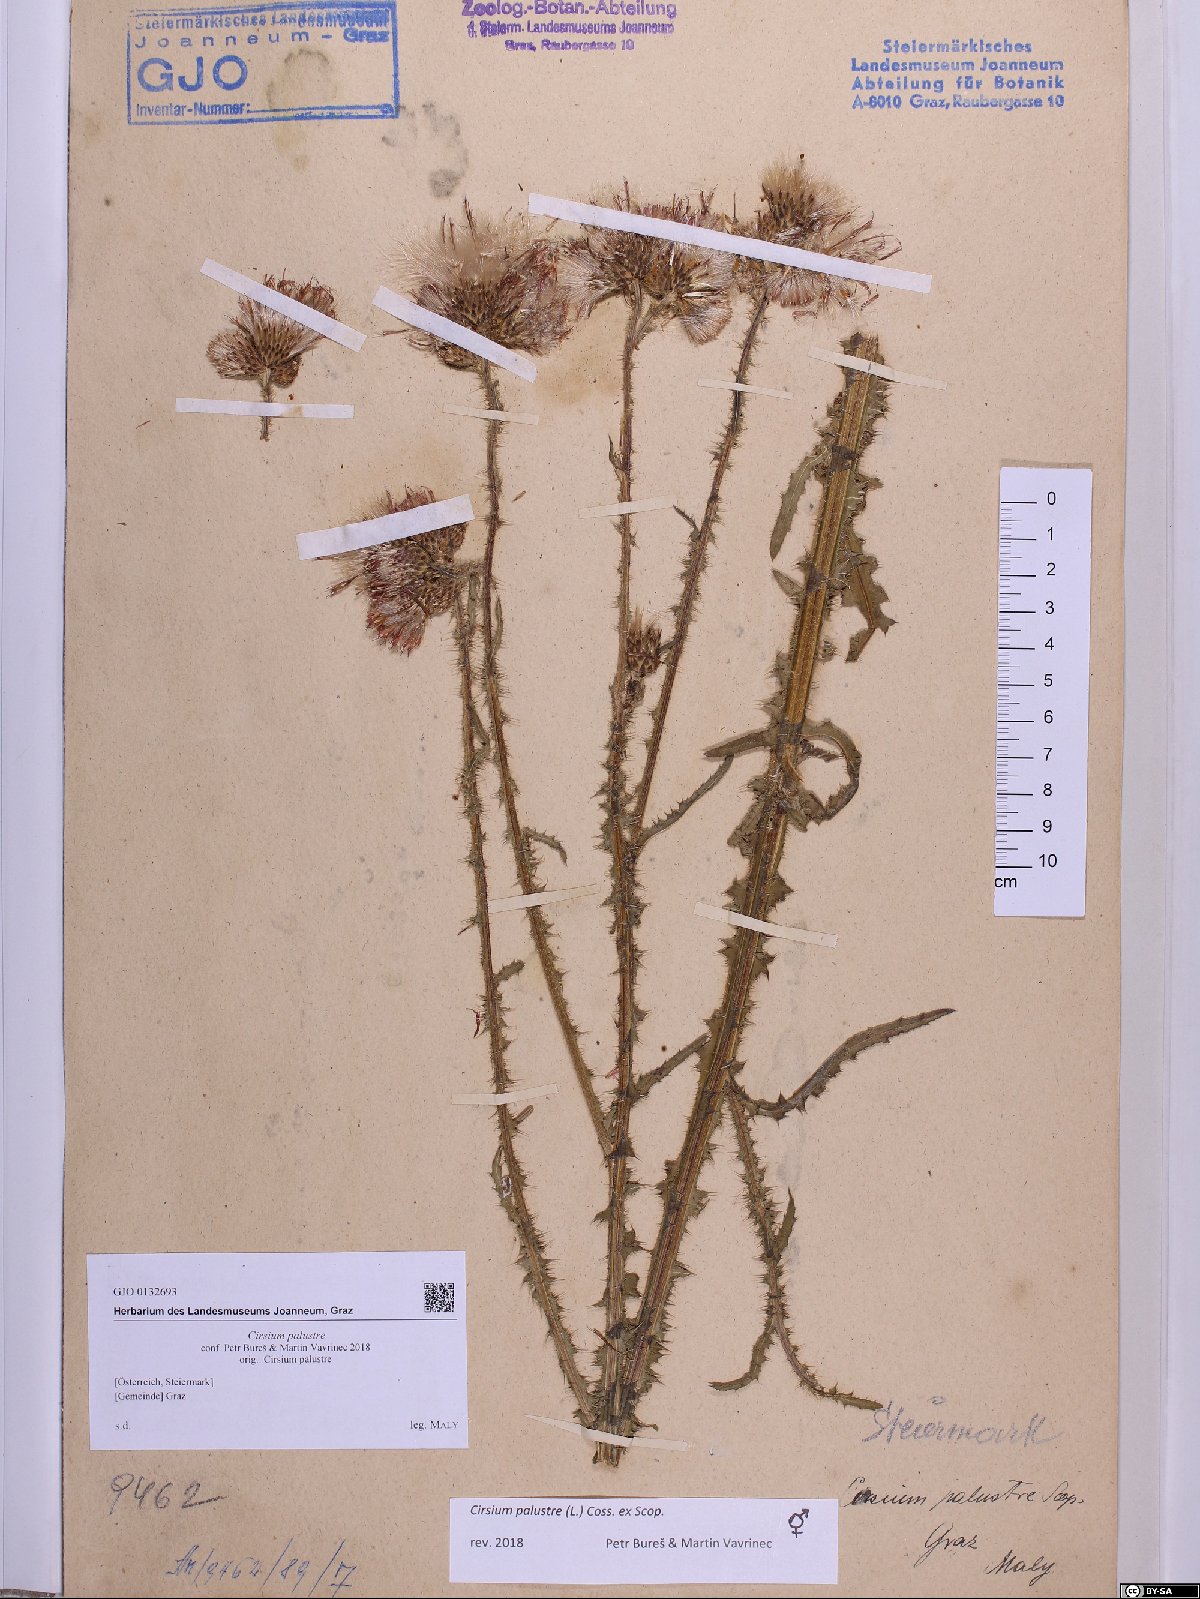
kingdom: Plantae
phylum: Tracheophyta
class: Magnoliopsida
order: Asterales
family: Asteraceae
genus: Cirsium
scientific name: Cirsium palustre
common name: Marsh thistle
